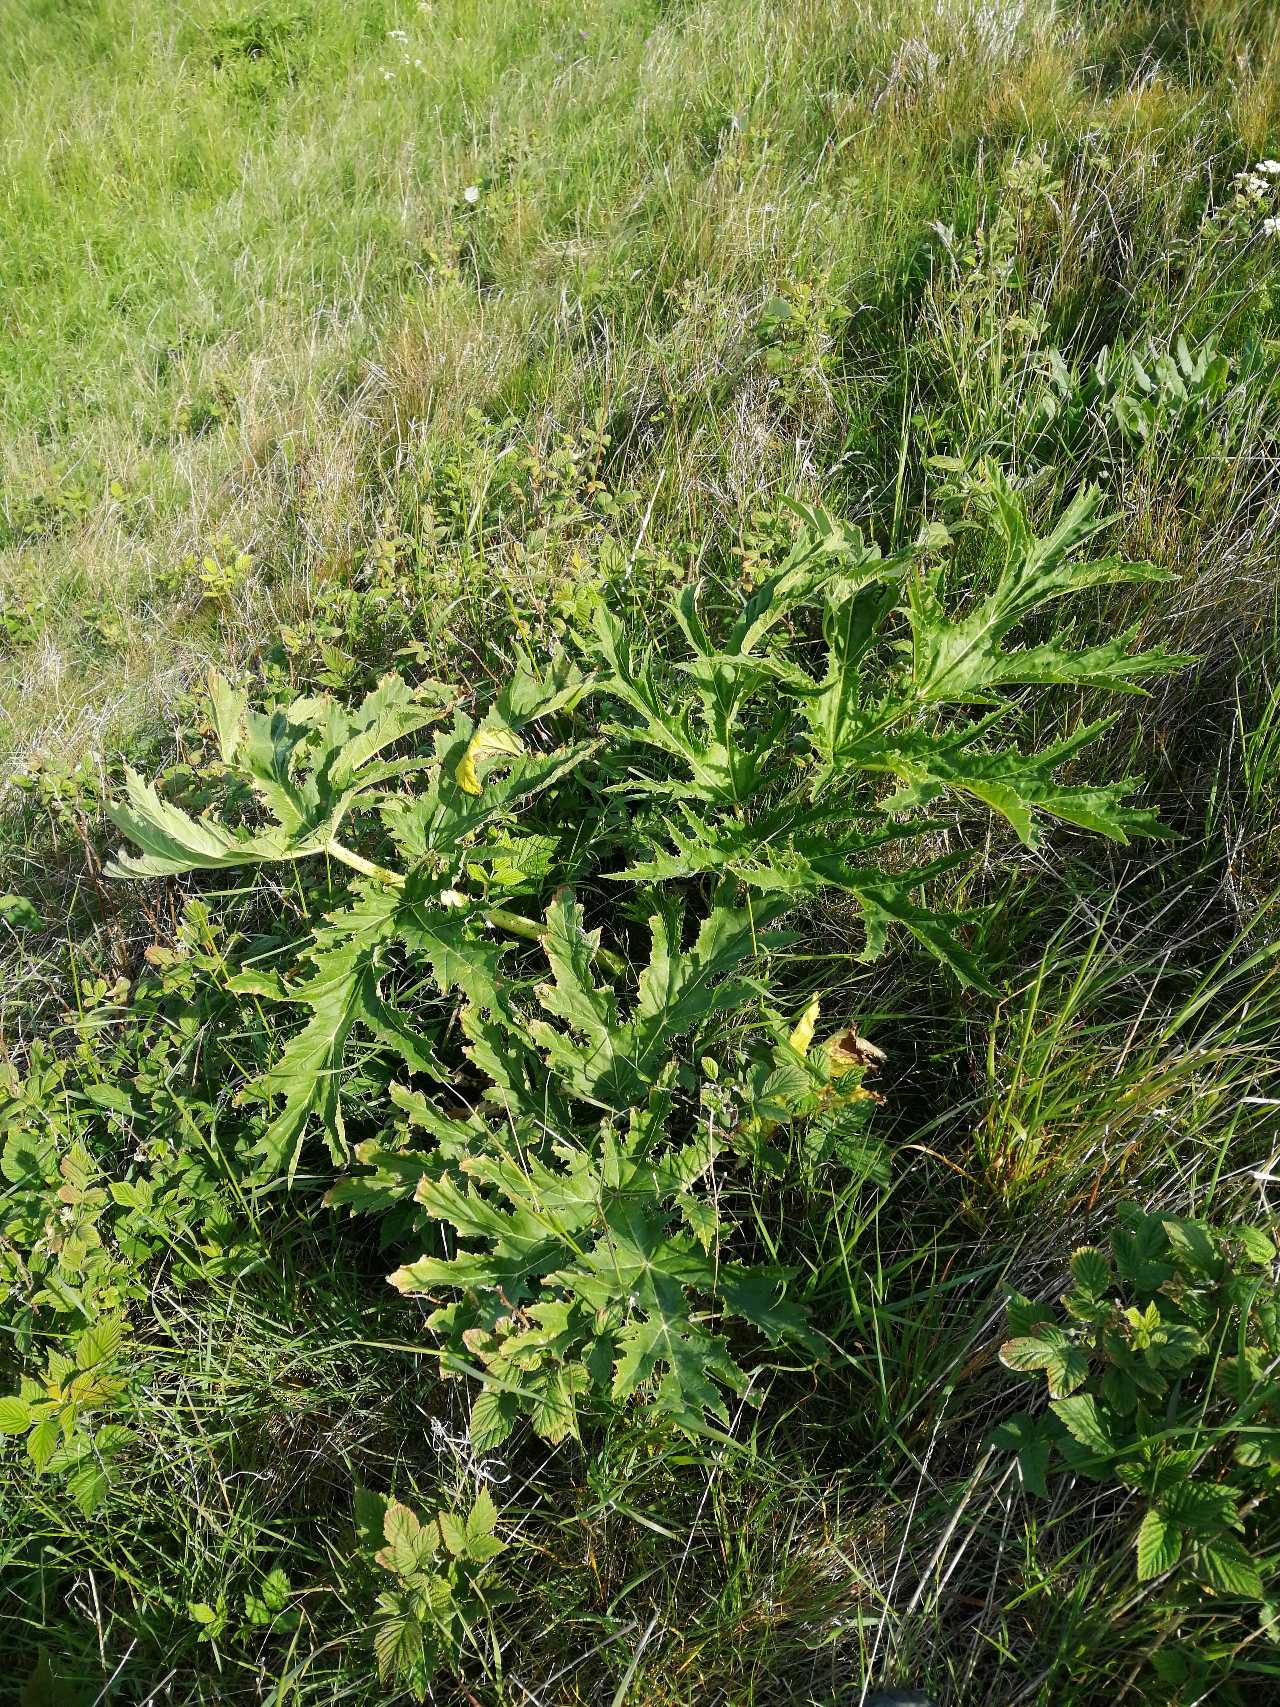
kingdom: Plantae
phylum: Tracheophyta
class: Magnoliopsida
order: Apiales
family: Apiaceae
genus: Heracleum
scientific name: Heracleum mantegazzianum
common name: Kæmpe-bjørneklo
